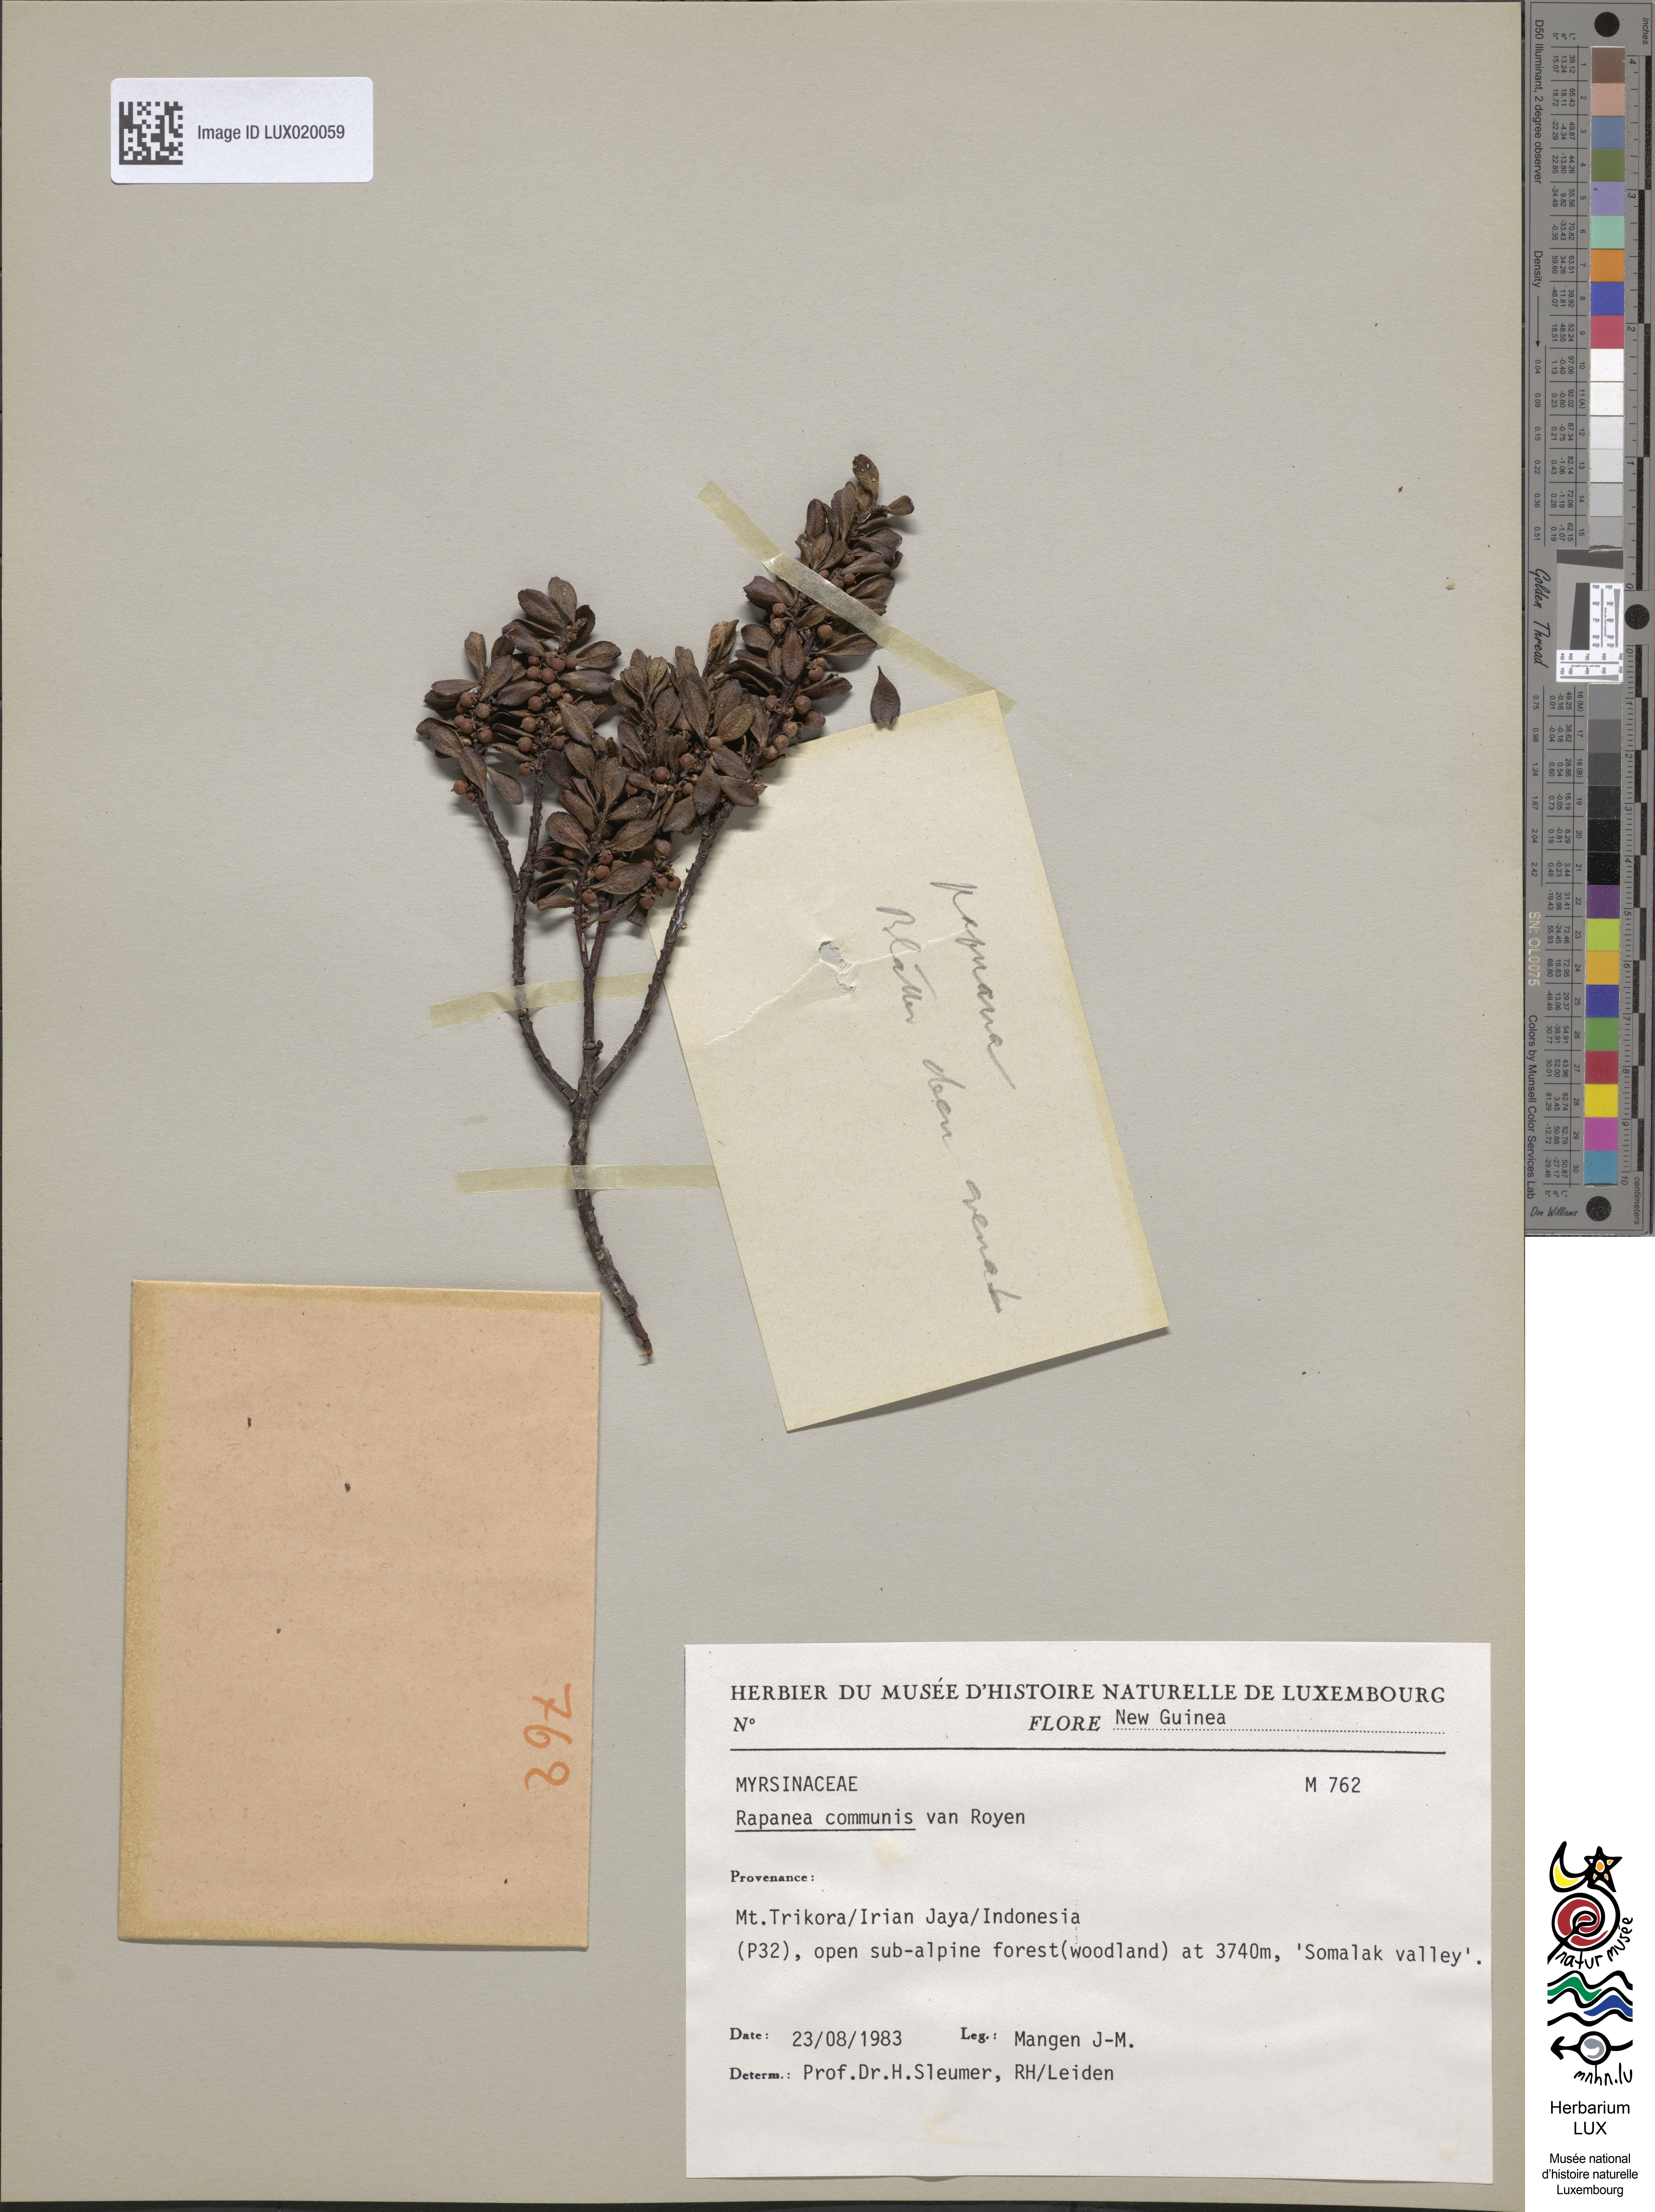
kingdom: Plantae
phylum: Tracheophyta
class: Magnoliopsida
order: Ericales
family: Primulaceae
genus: Myrsine
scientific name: Myrsine cacuminum
